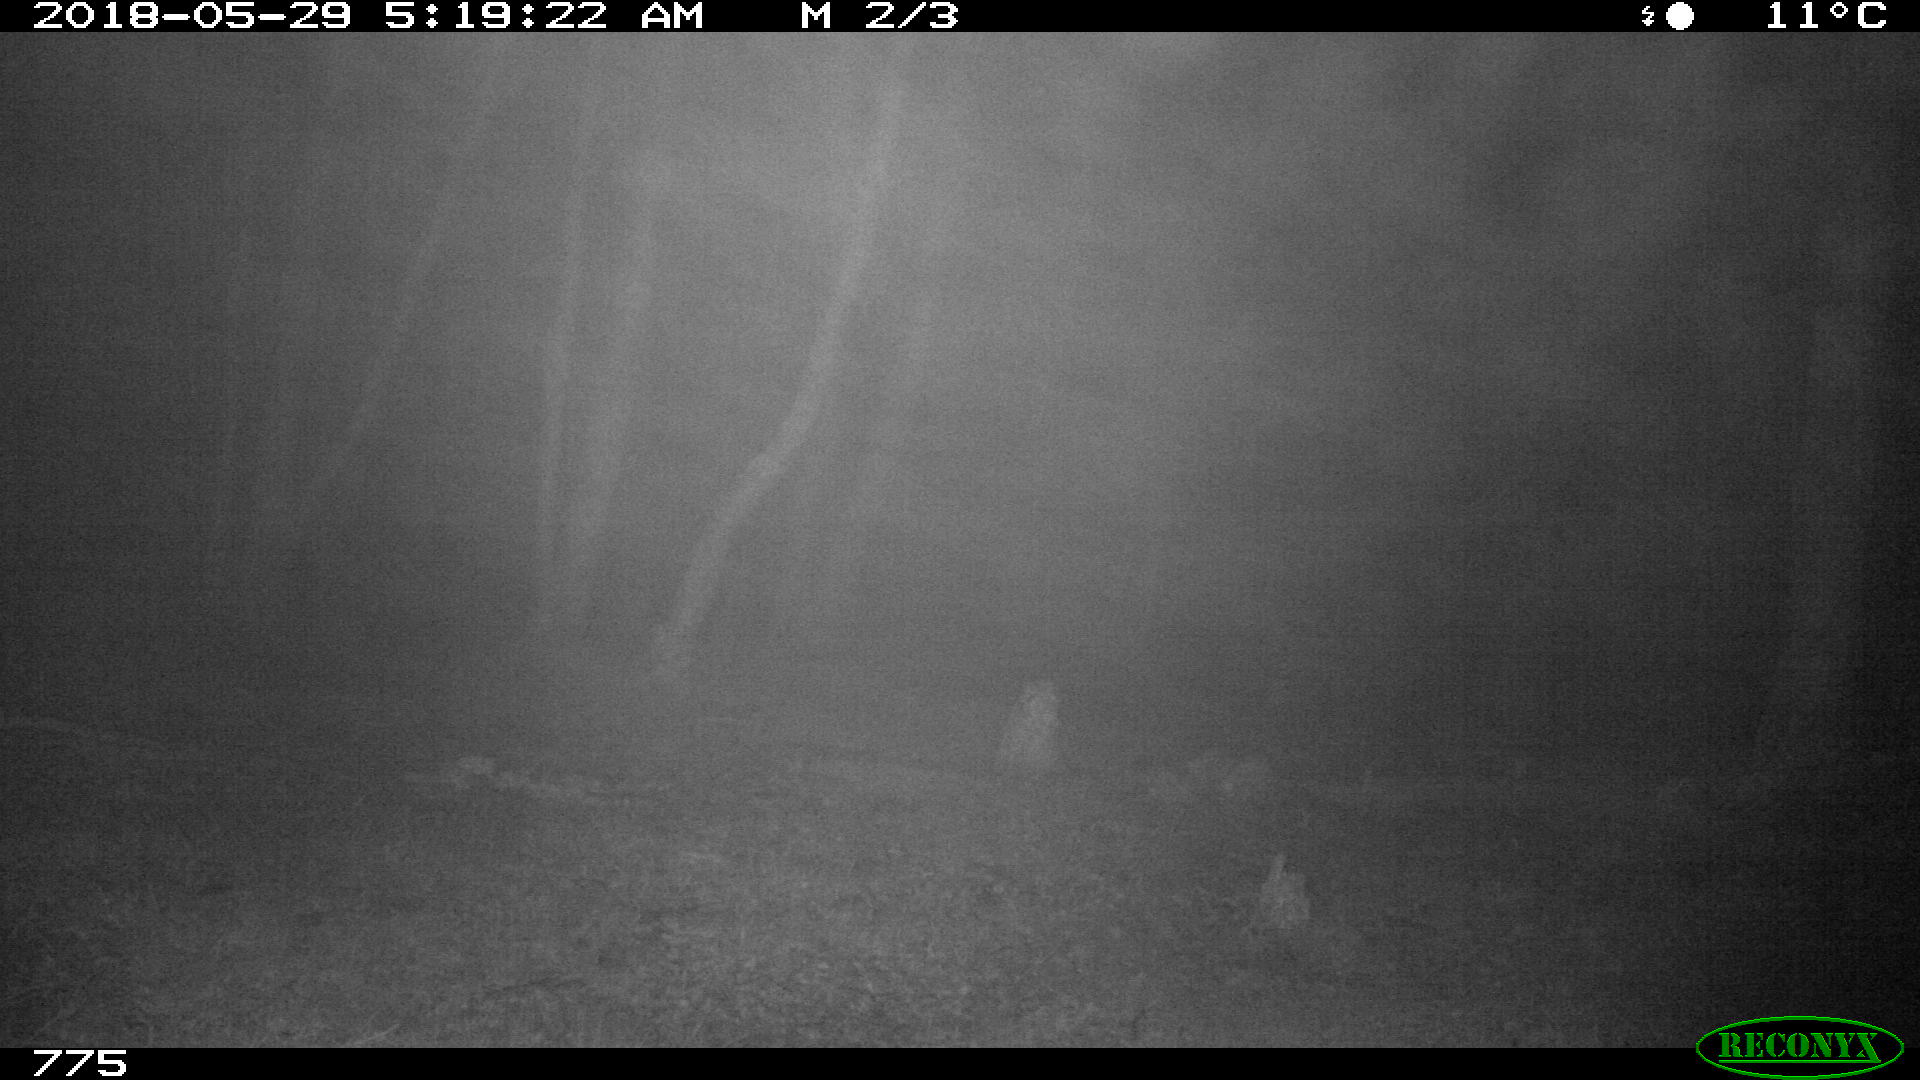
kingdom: Animalia
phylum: Chordata
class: Mammalia
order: Perissodactyla
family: Equidae
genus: Equus
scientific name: Equus caballus
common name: Horse
